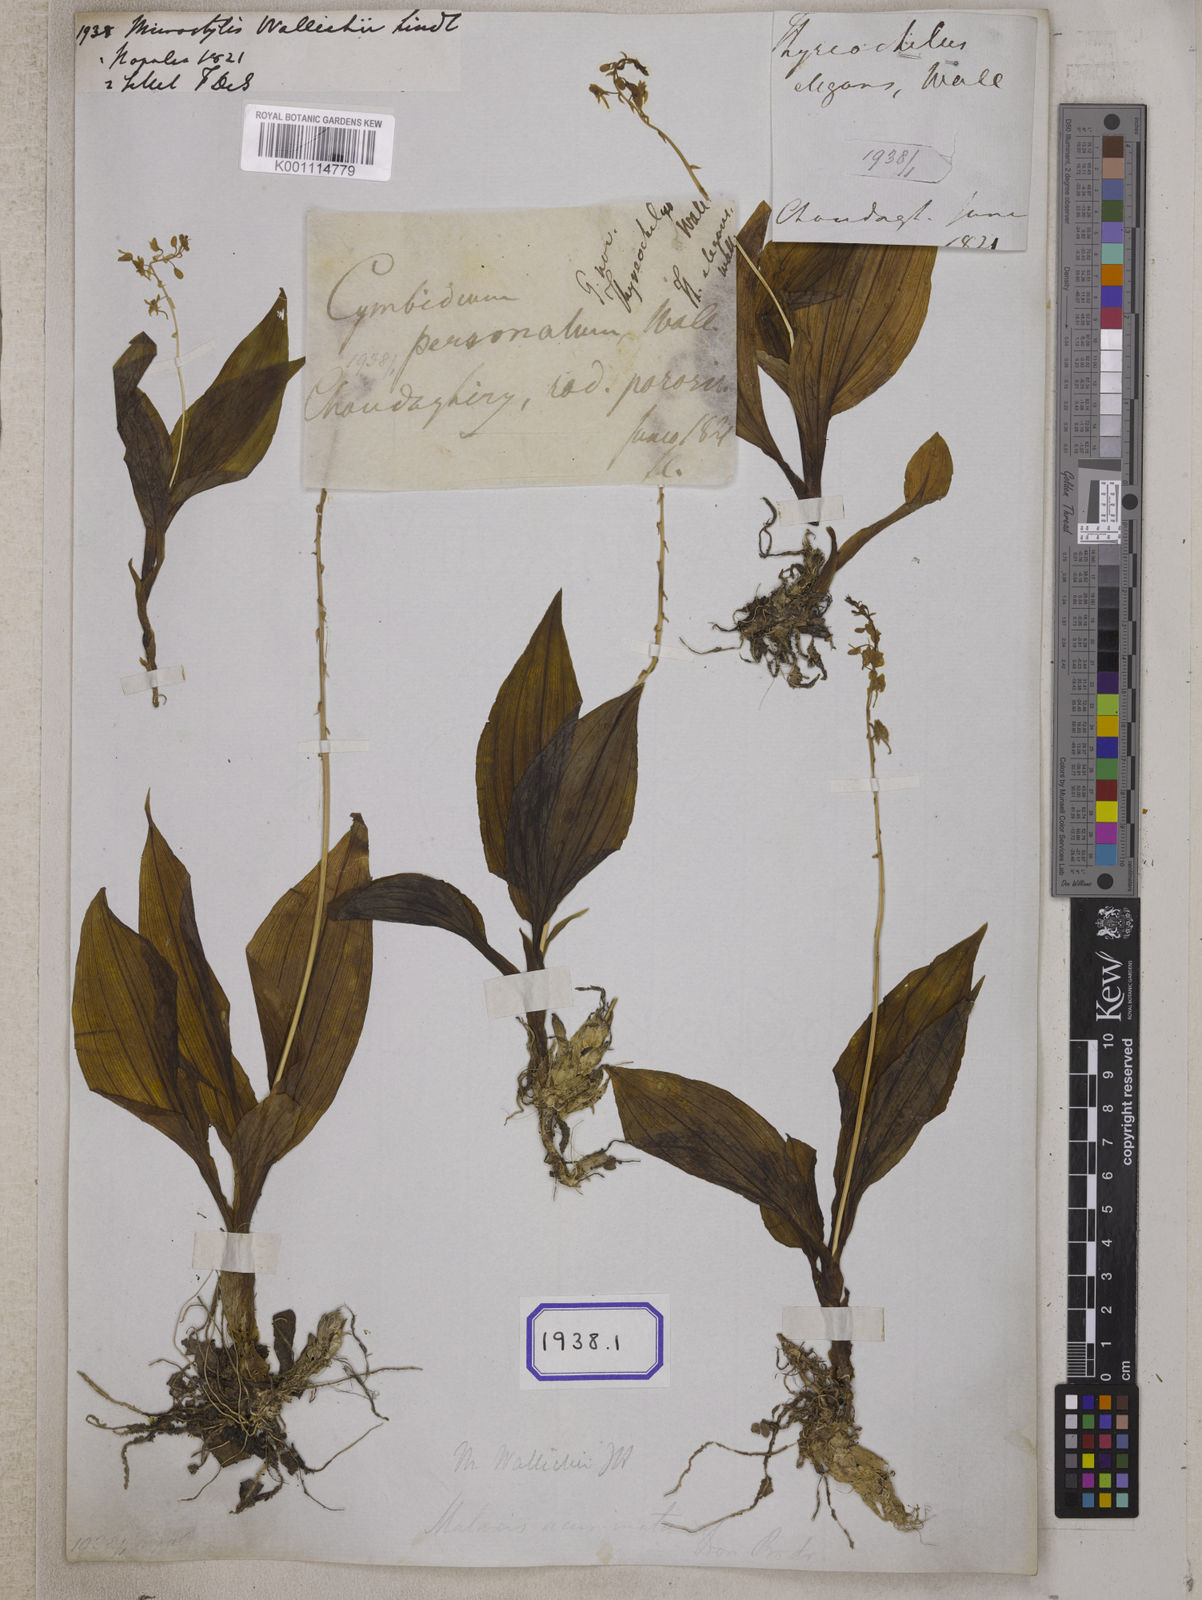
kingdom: Plantae
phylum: Tracheophyta
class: Liliopsida
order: Asparagales
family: Orchidaceae
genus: Crepidium
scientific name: Crepidium acuminatum
